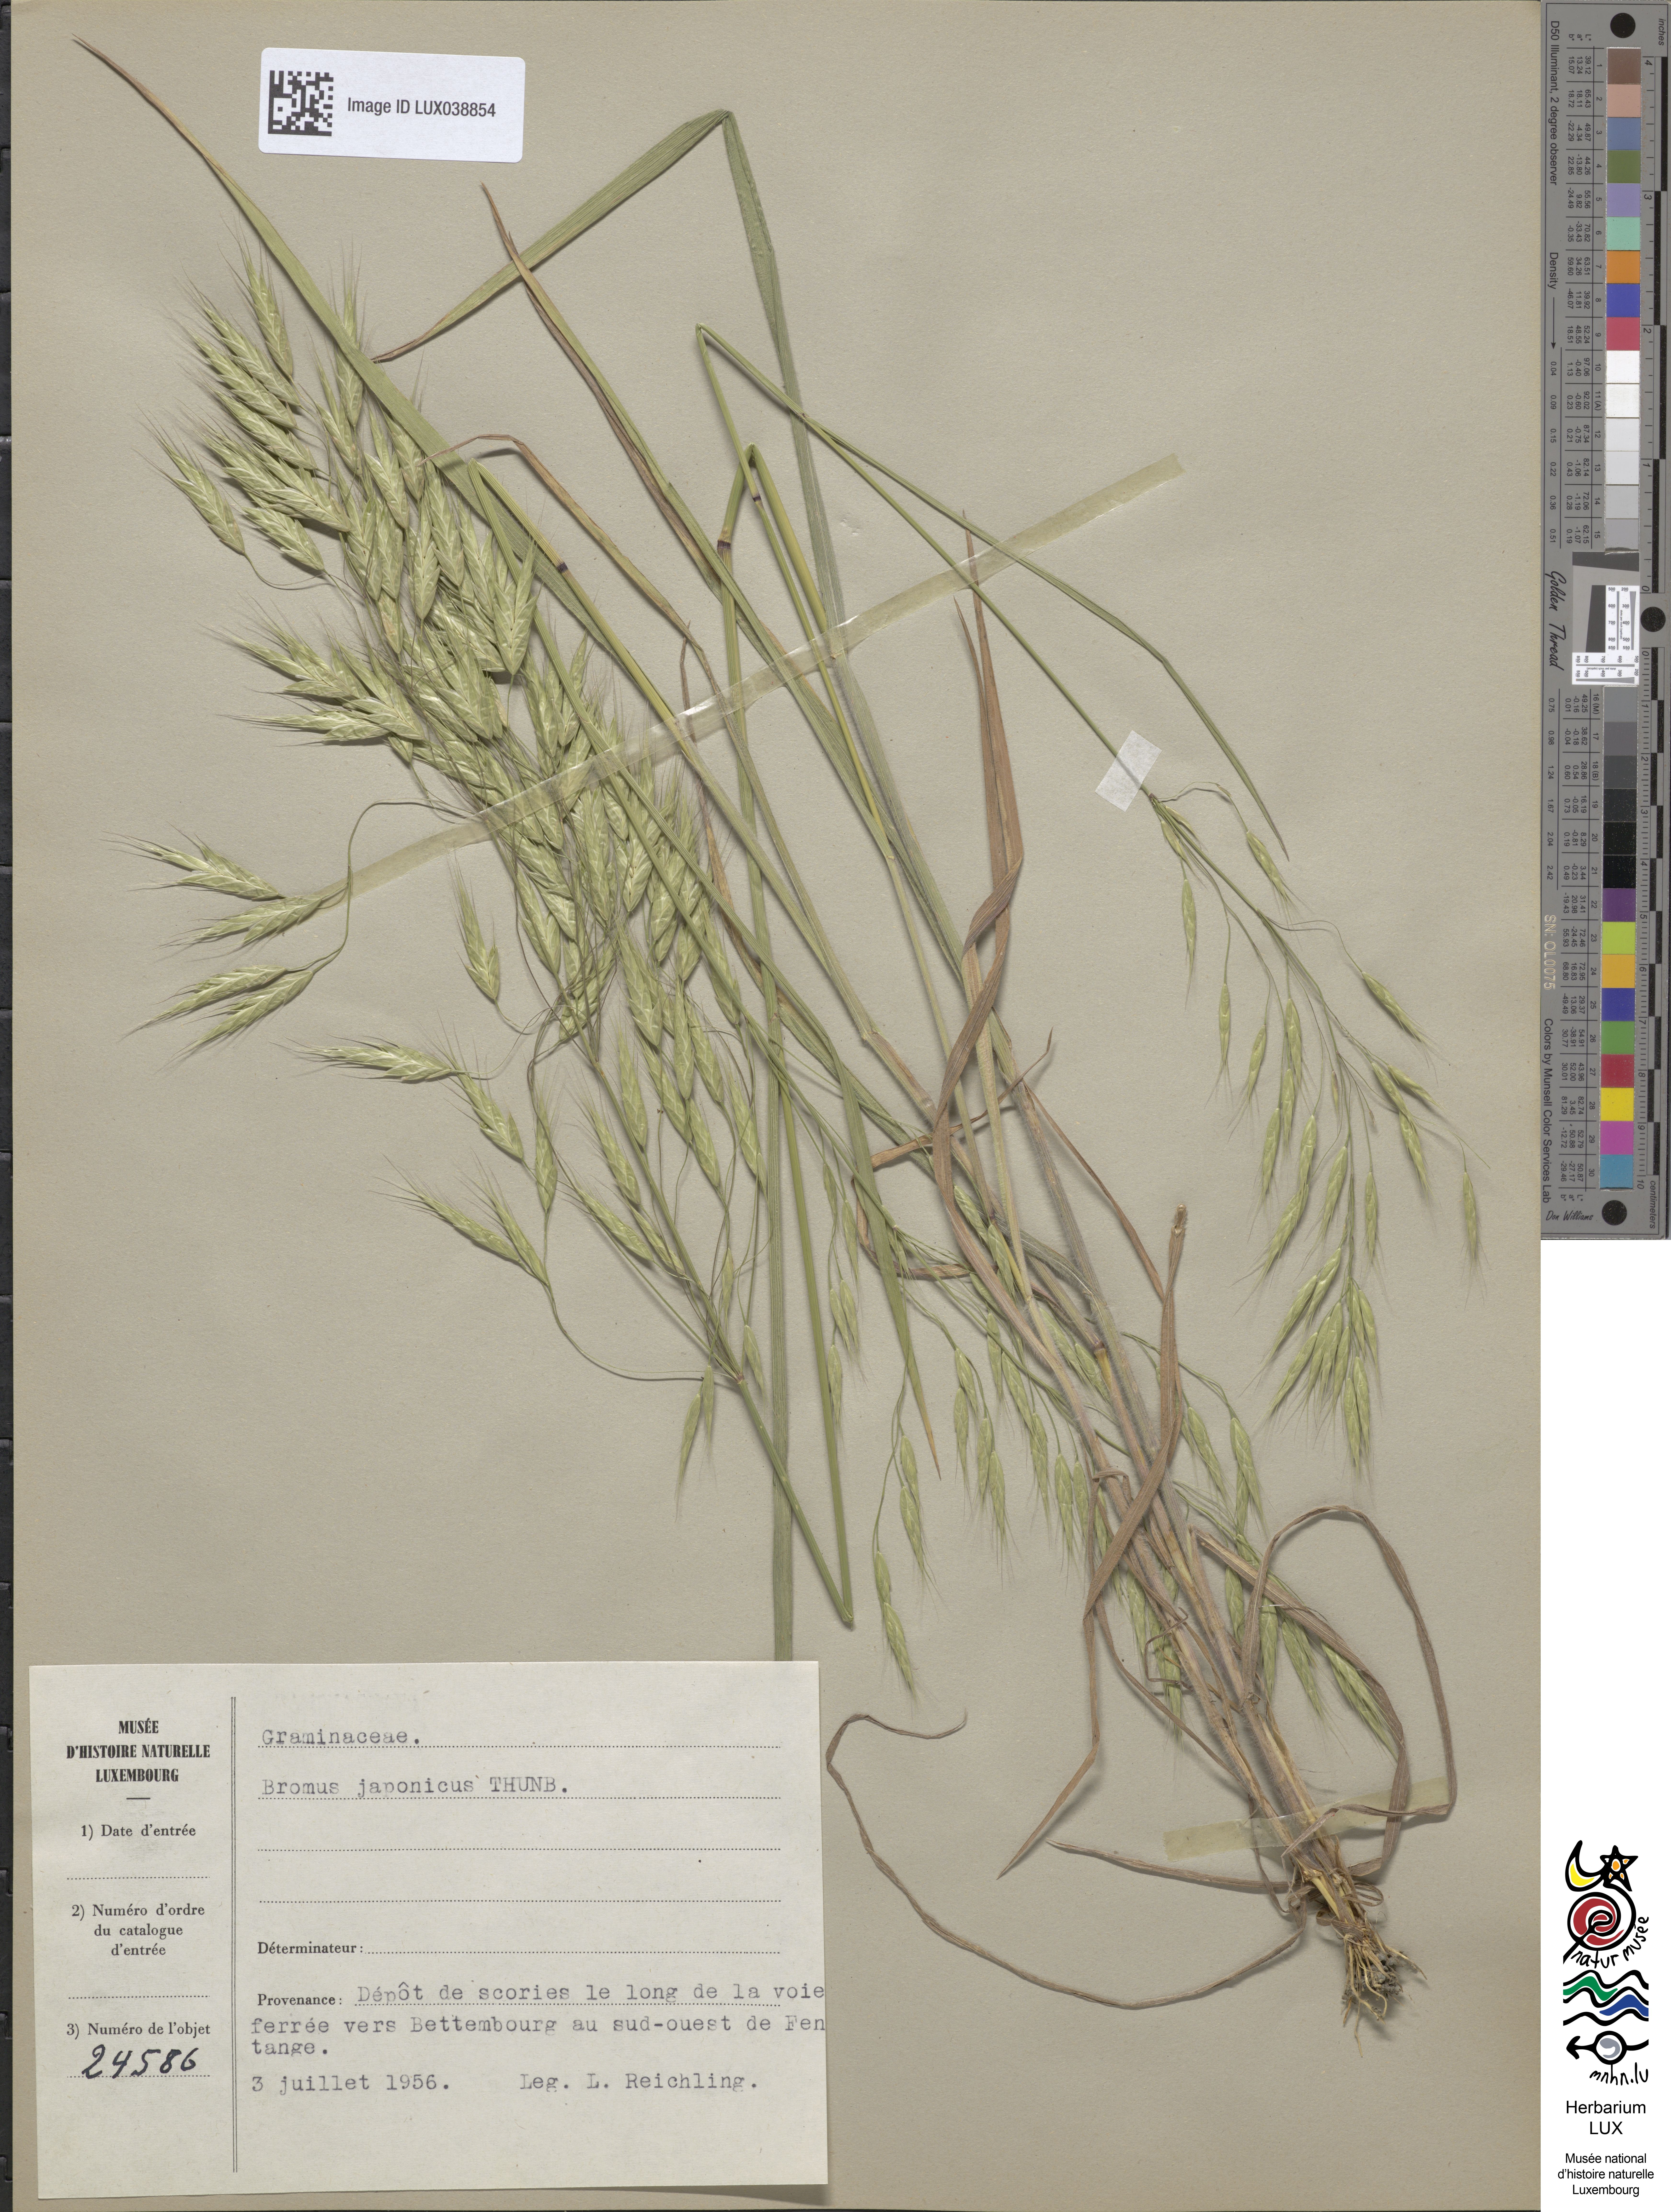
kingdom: Plantae
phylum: Tracheophyta
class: Liliopsida
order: Poales
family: Poaceae
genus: Bromus
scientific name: Bromus japonicus
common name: Japanese brome
